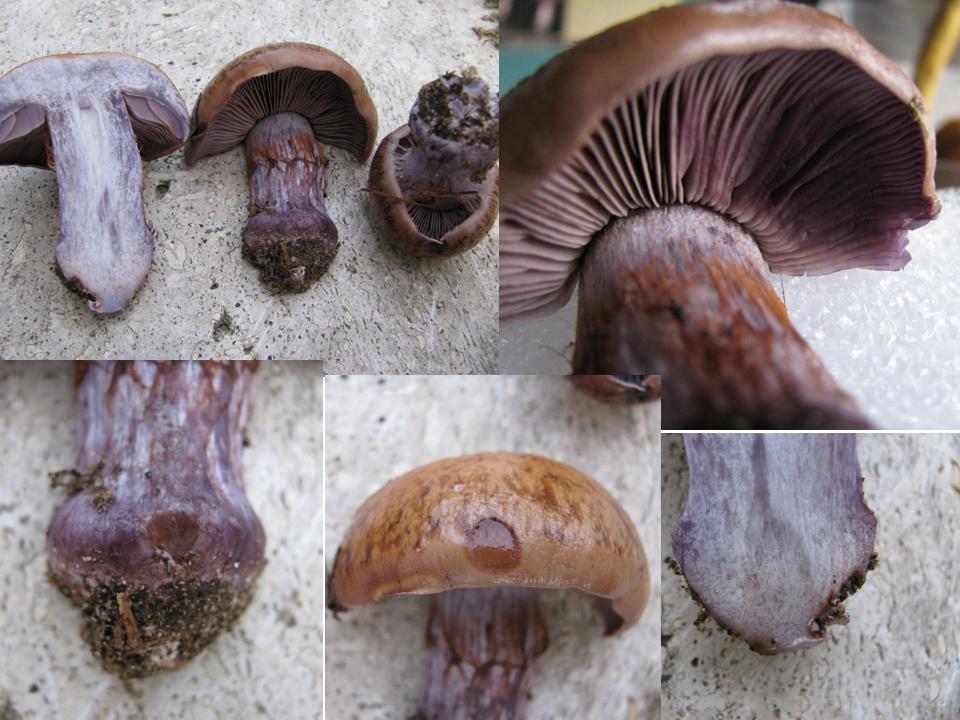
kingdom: Fungi
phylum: Basidiomycota
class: Agaricomycetes
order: Agaricales
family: Cortinariaceae
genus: Thaxterogaster
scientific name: Thaxterogaster purpurascens
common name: purpurbrun slørhat
